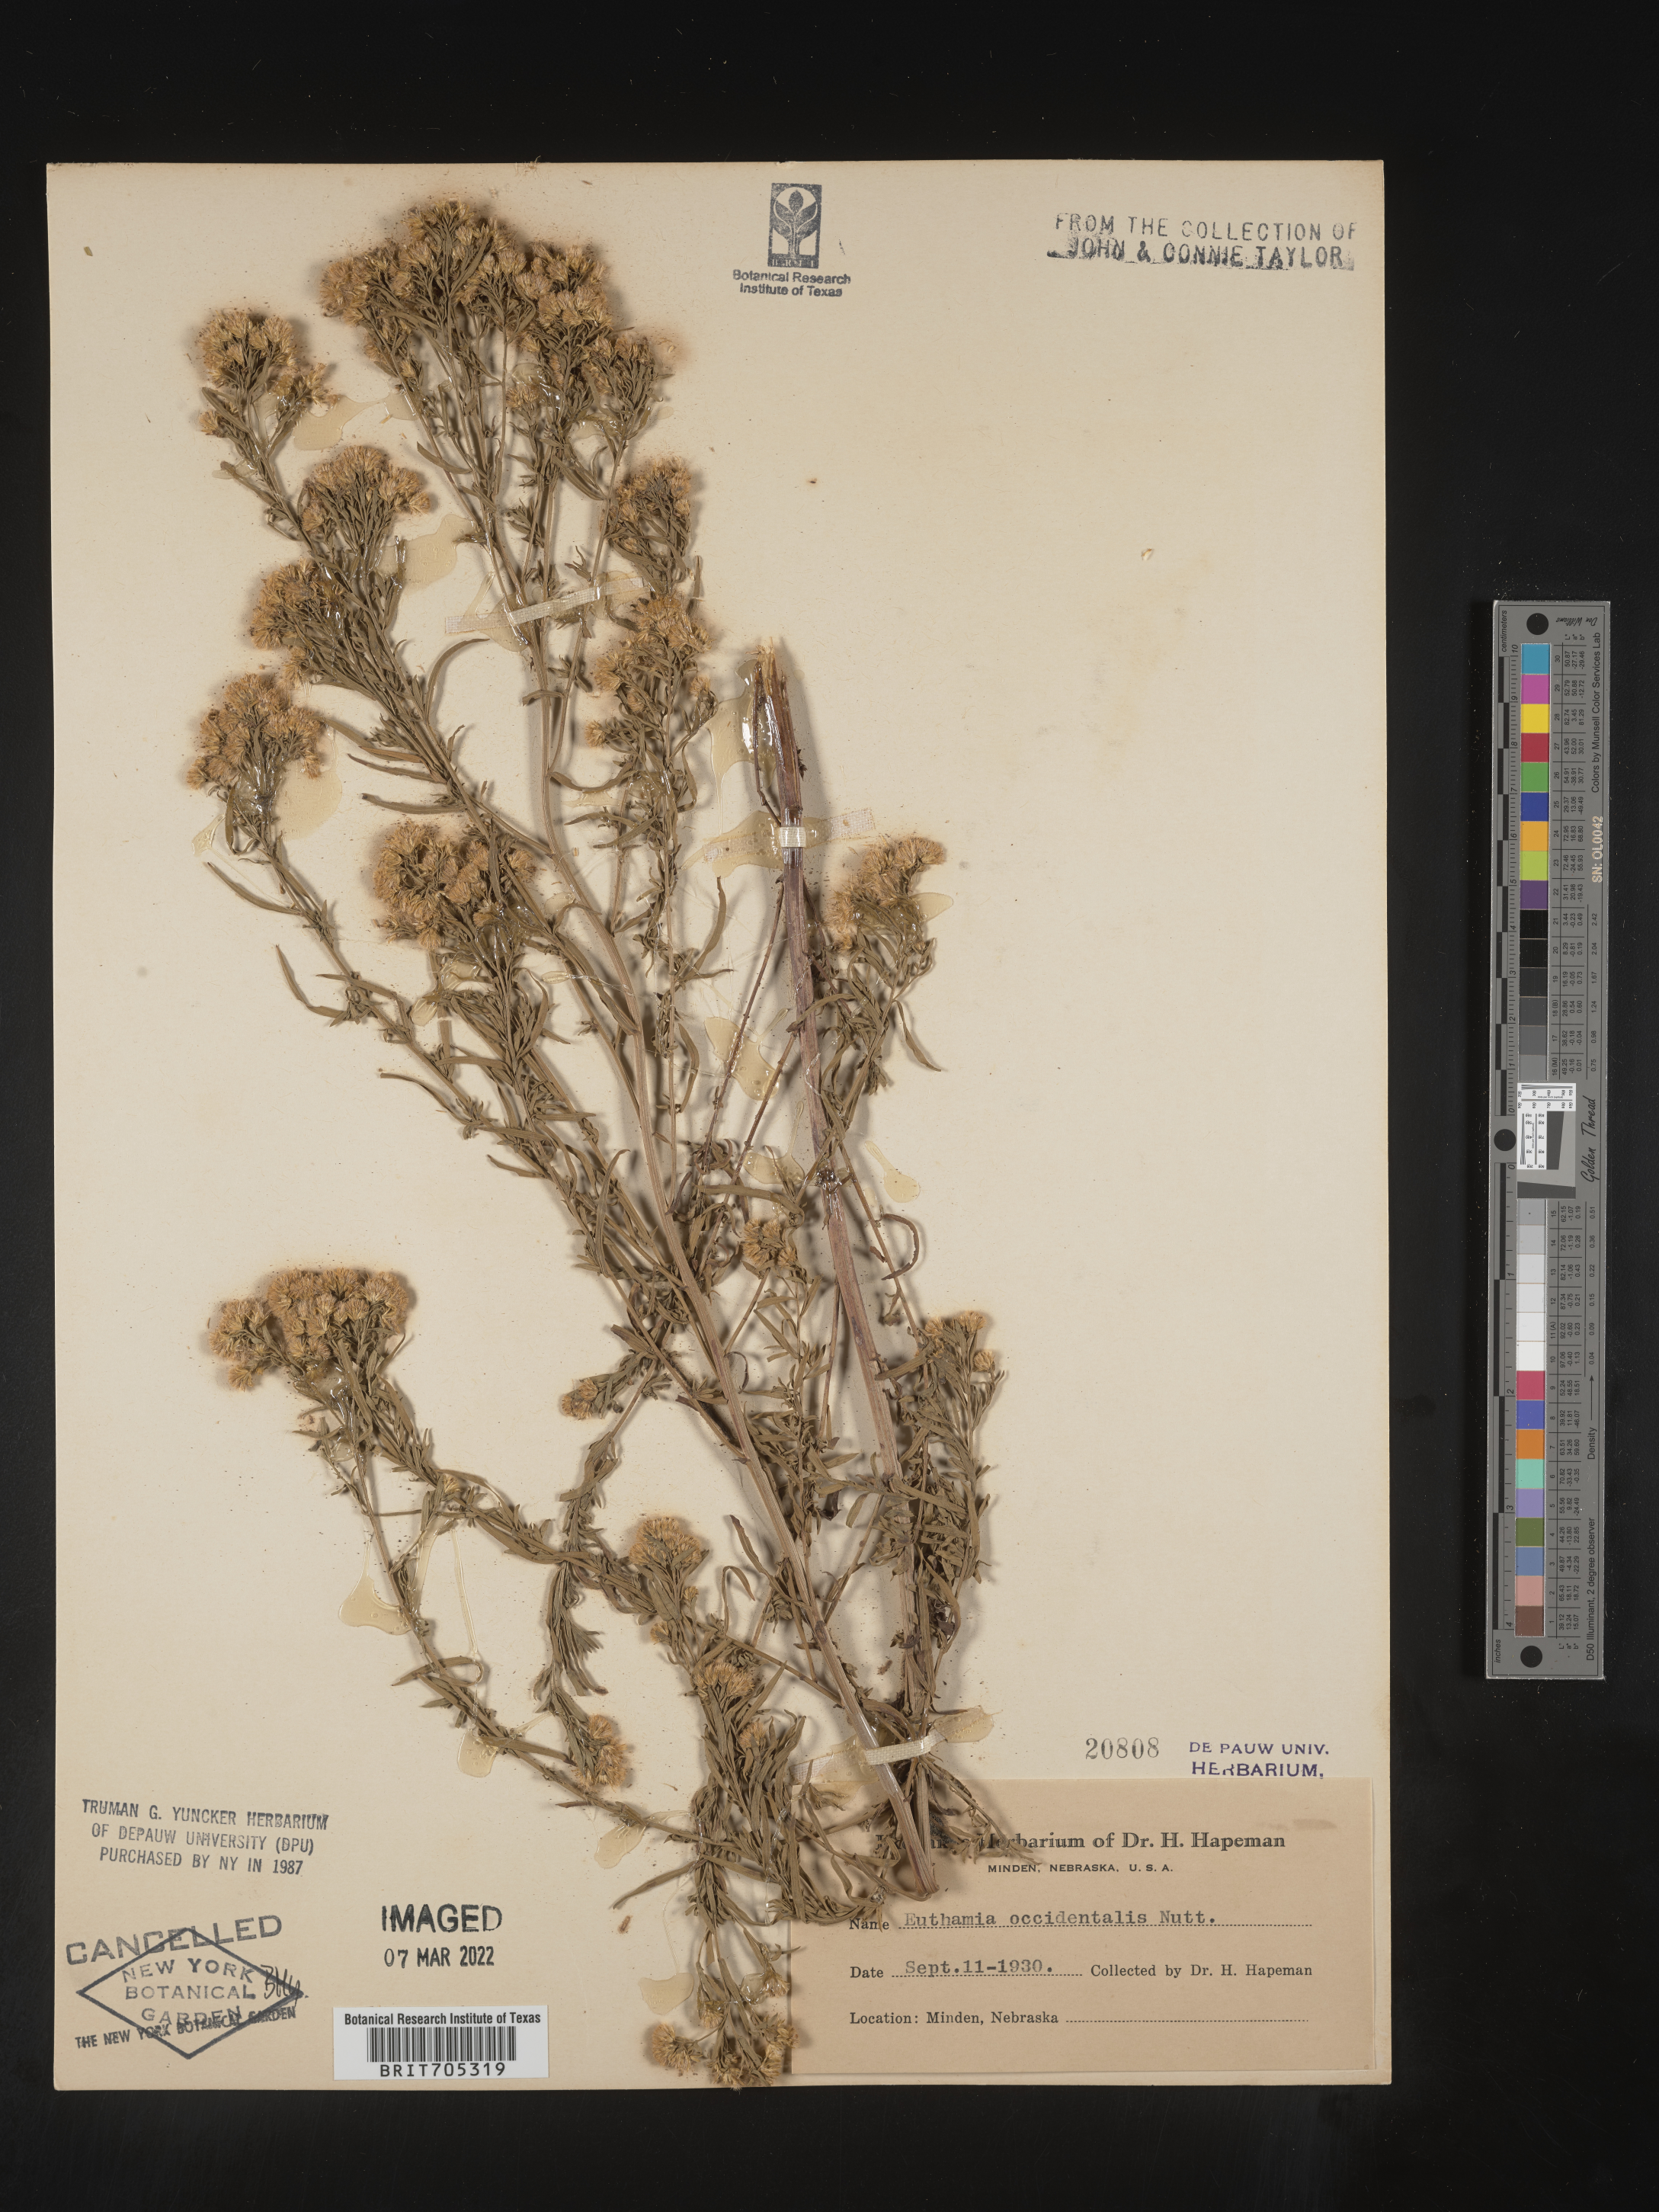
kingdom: Plantae
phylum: Tracheophyta
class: Magnoliopsida
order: Asterales
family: Asteraceae
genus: Euthamia
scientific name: Euthamia occidentalis
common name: Western goldentop
